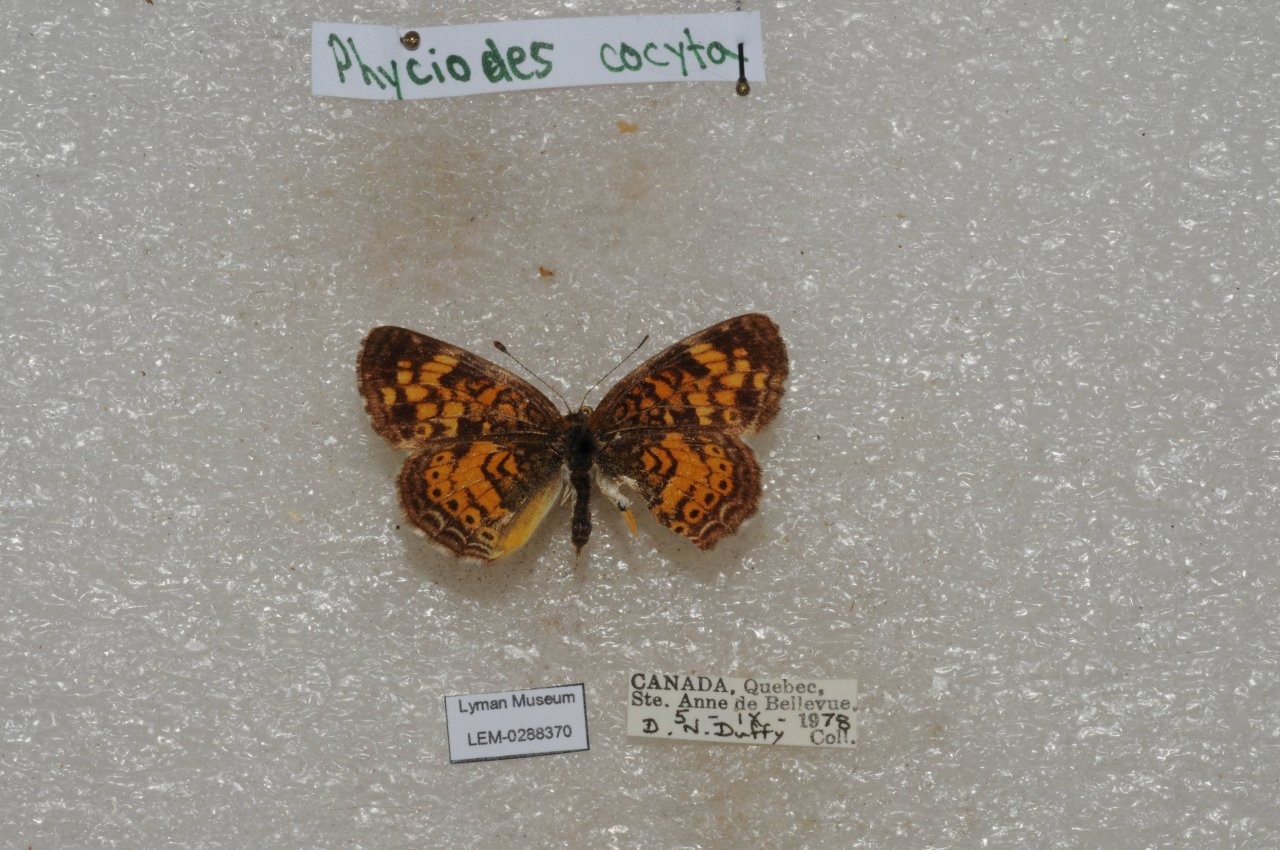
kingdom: Animalia
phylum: Arthropoda
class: Insecta
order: Lepidoptera
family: Nymphalidae
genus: Phyciodes
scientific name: Phyciodes tharos
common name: Northern Crescent
